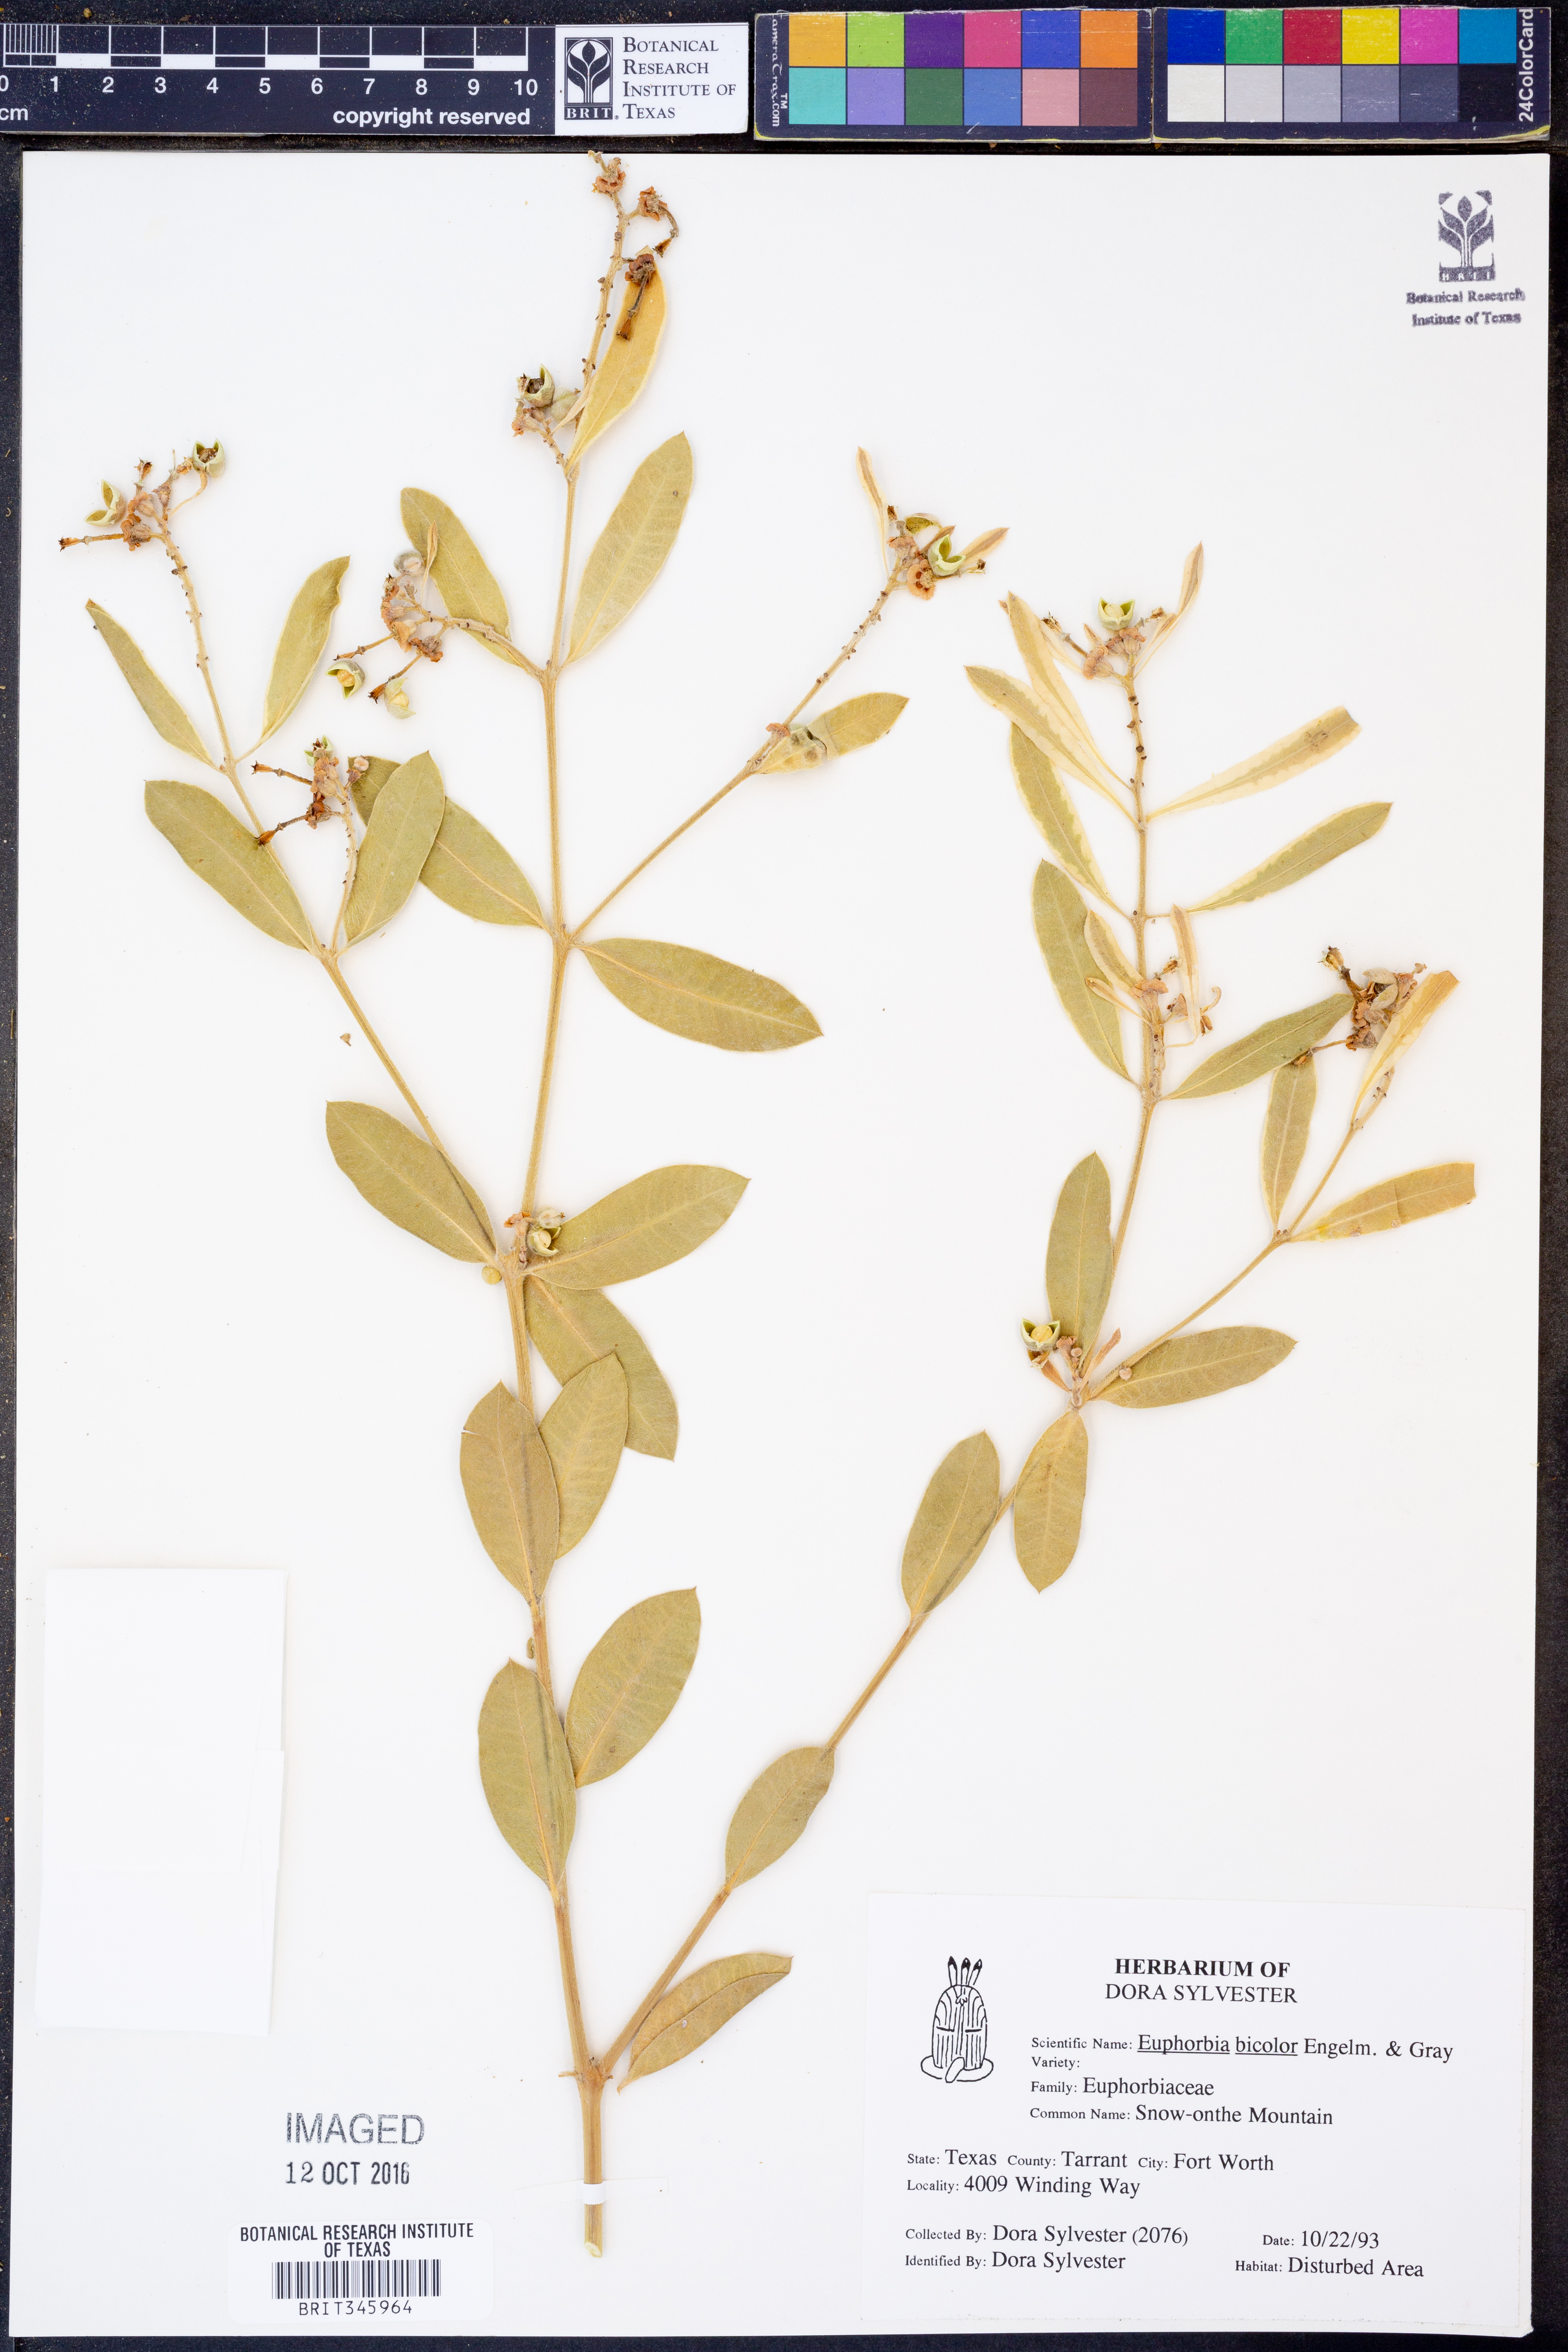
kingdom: Plantae
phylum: Tracheophyta
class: Magnoliopsida
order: Malpighiales
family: Euphorbiaceae
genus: Euphorbia
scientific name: Euphorbia bicolor
